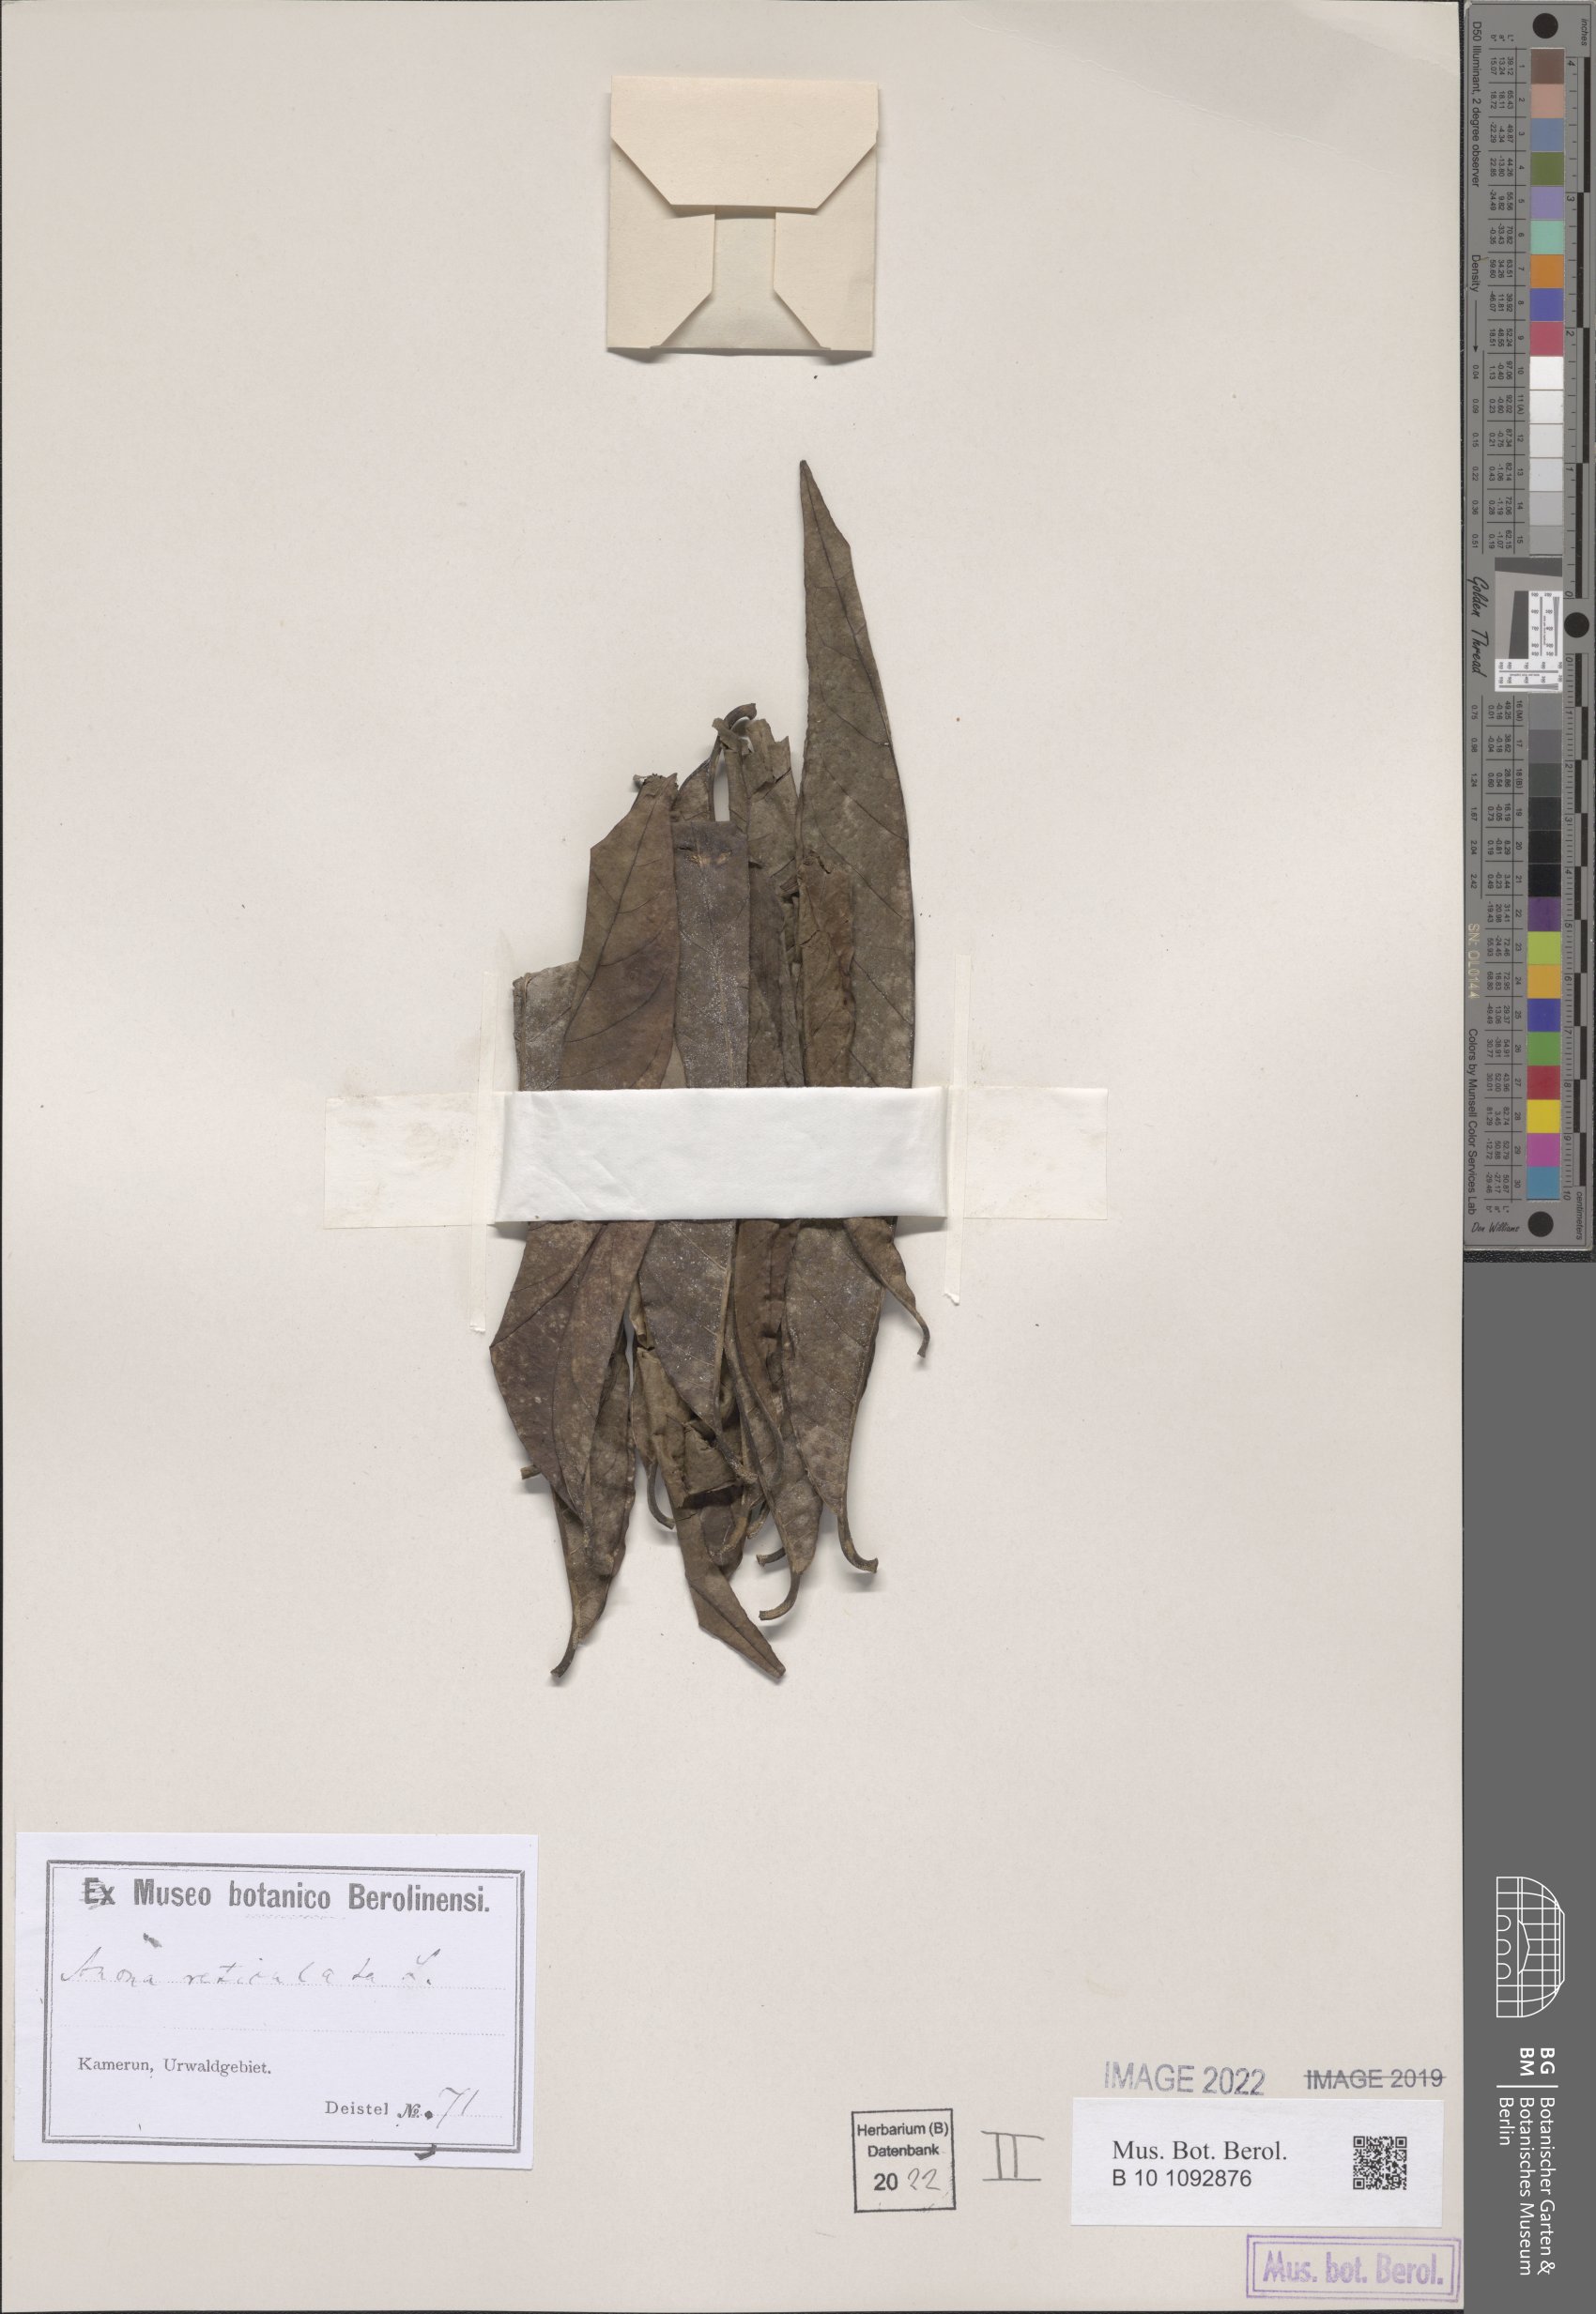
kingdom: Plantae
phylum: Tracheophyta
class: Magnoliopsida
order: Magnoliales
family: Annonaceae
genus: Annona
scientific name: Annona reticulata
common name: Custard apple
